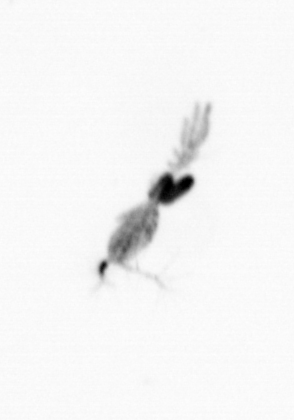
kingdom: Animalia
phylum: Arthropoda
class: Copepoda
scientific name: Copepoda
